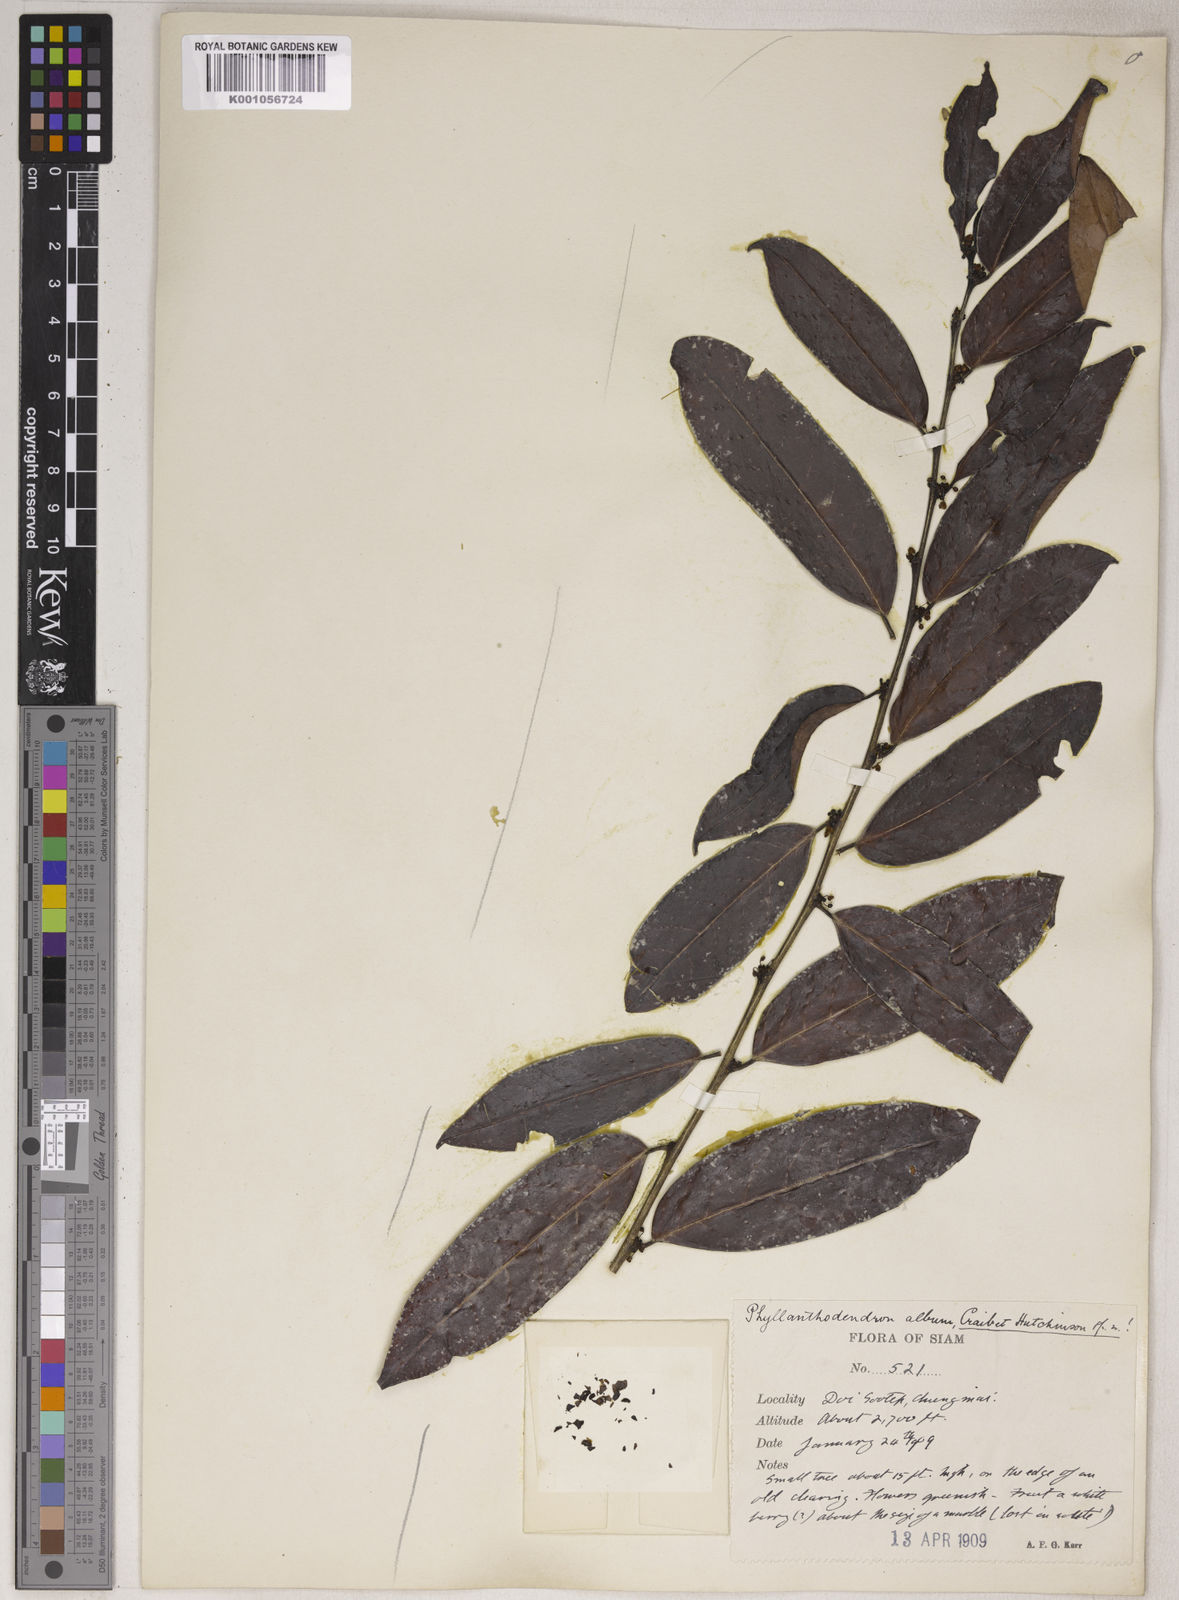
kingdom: Plantae
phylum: Tracheophyta
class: Magnoliopsida
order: Malpighiales
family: Phyllanthaceae
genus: Phyllanthus
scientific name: Phyllanthus roseus
